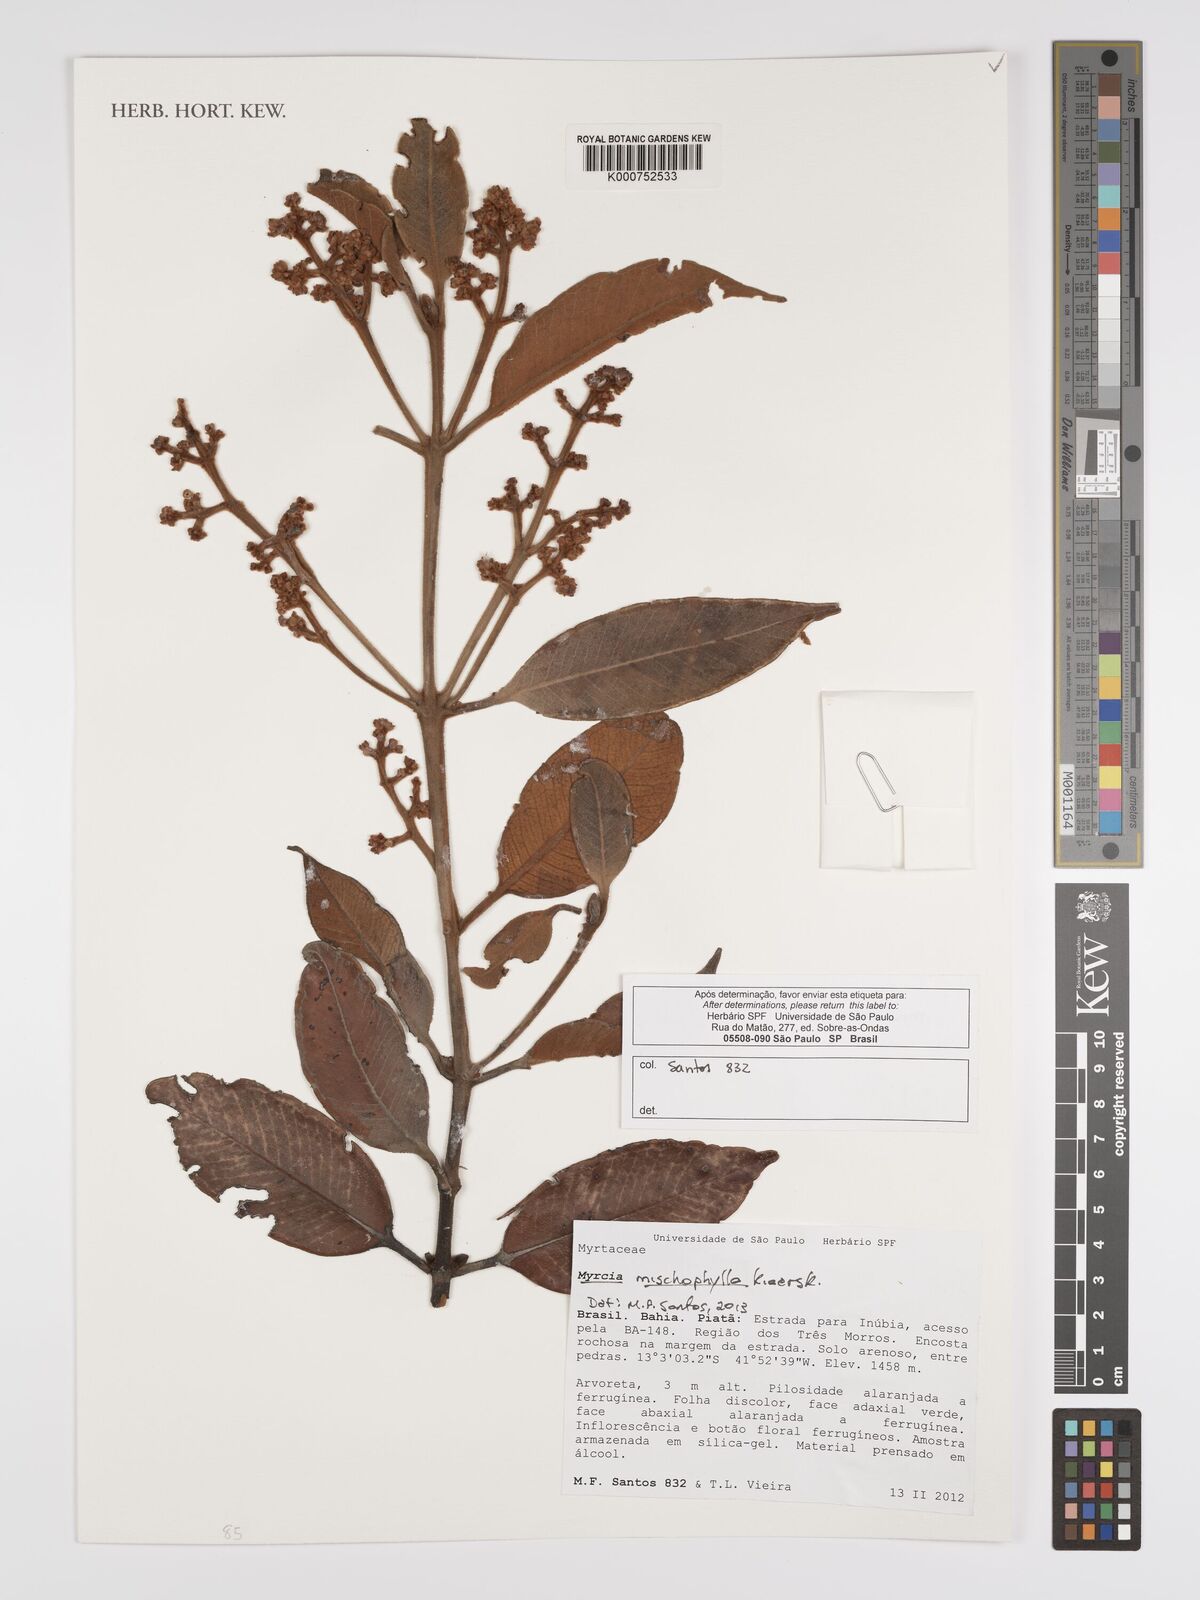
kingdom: Plantae
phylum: Tracheophyta
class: Magnoliopsida
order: Myrtales
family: Myrtaceae
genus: Myrcia
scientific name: Myrcia mischophylla
